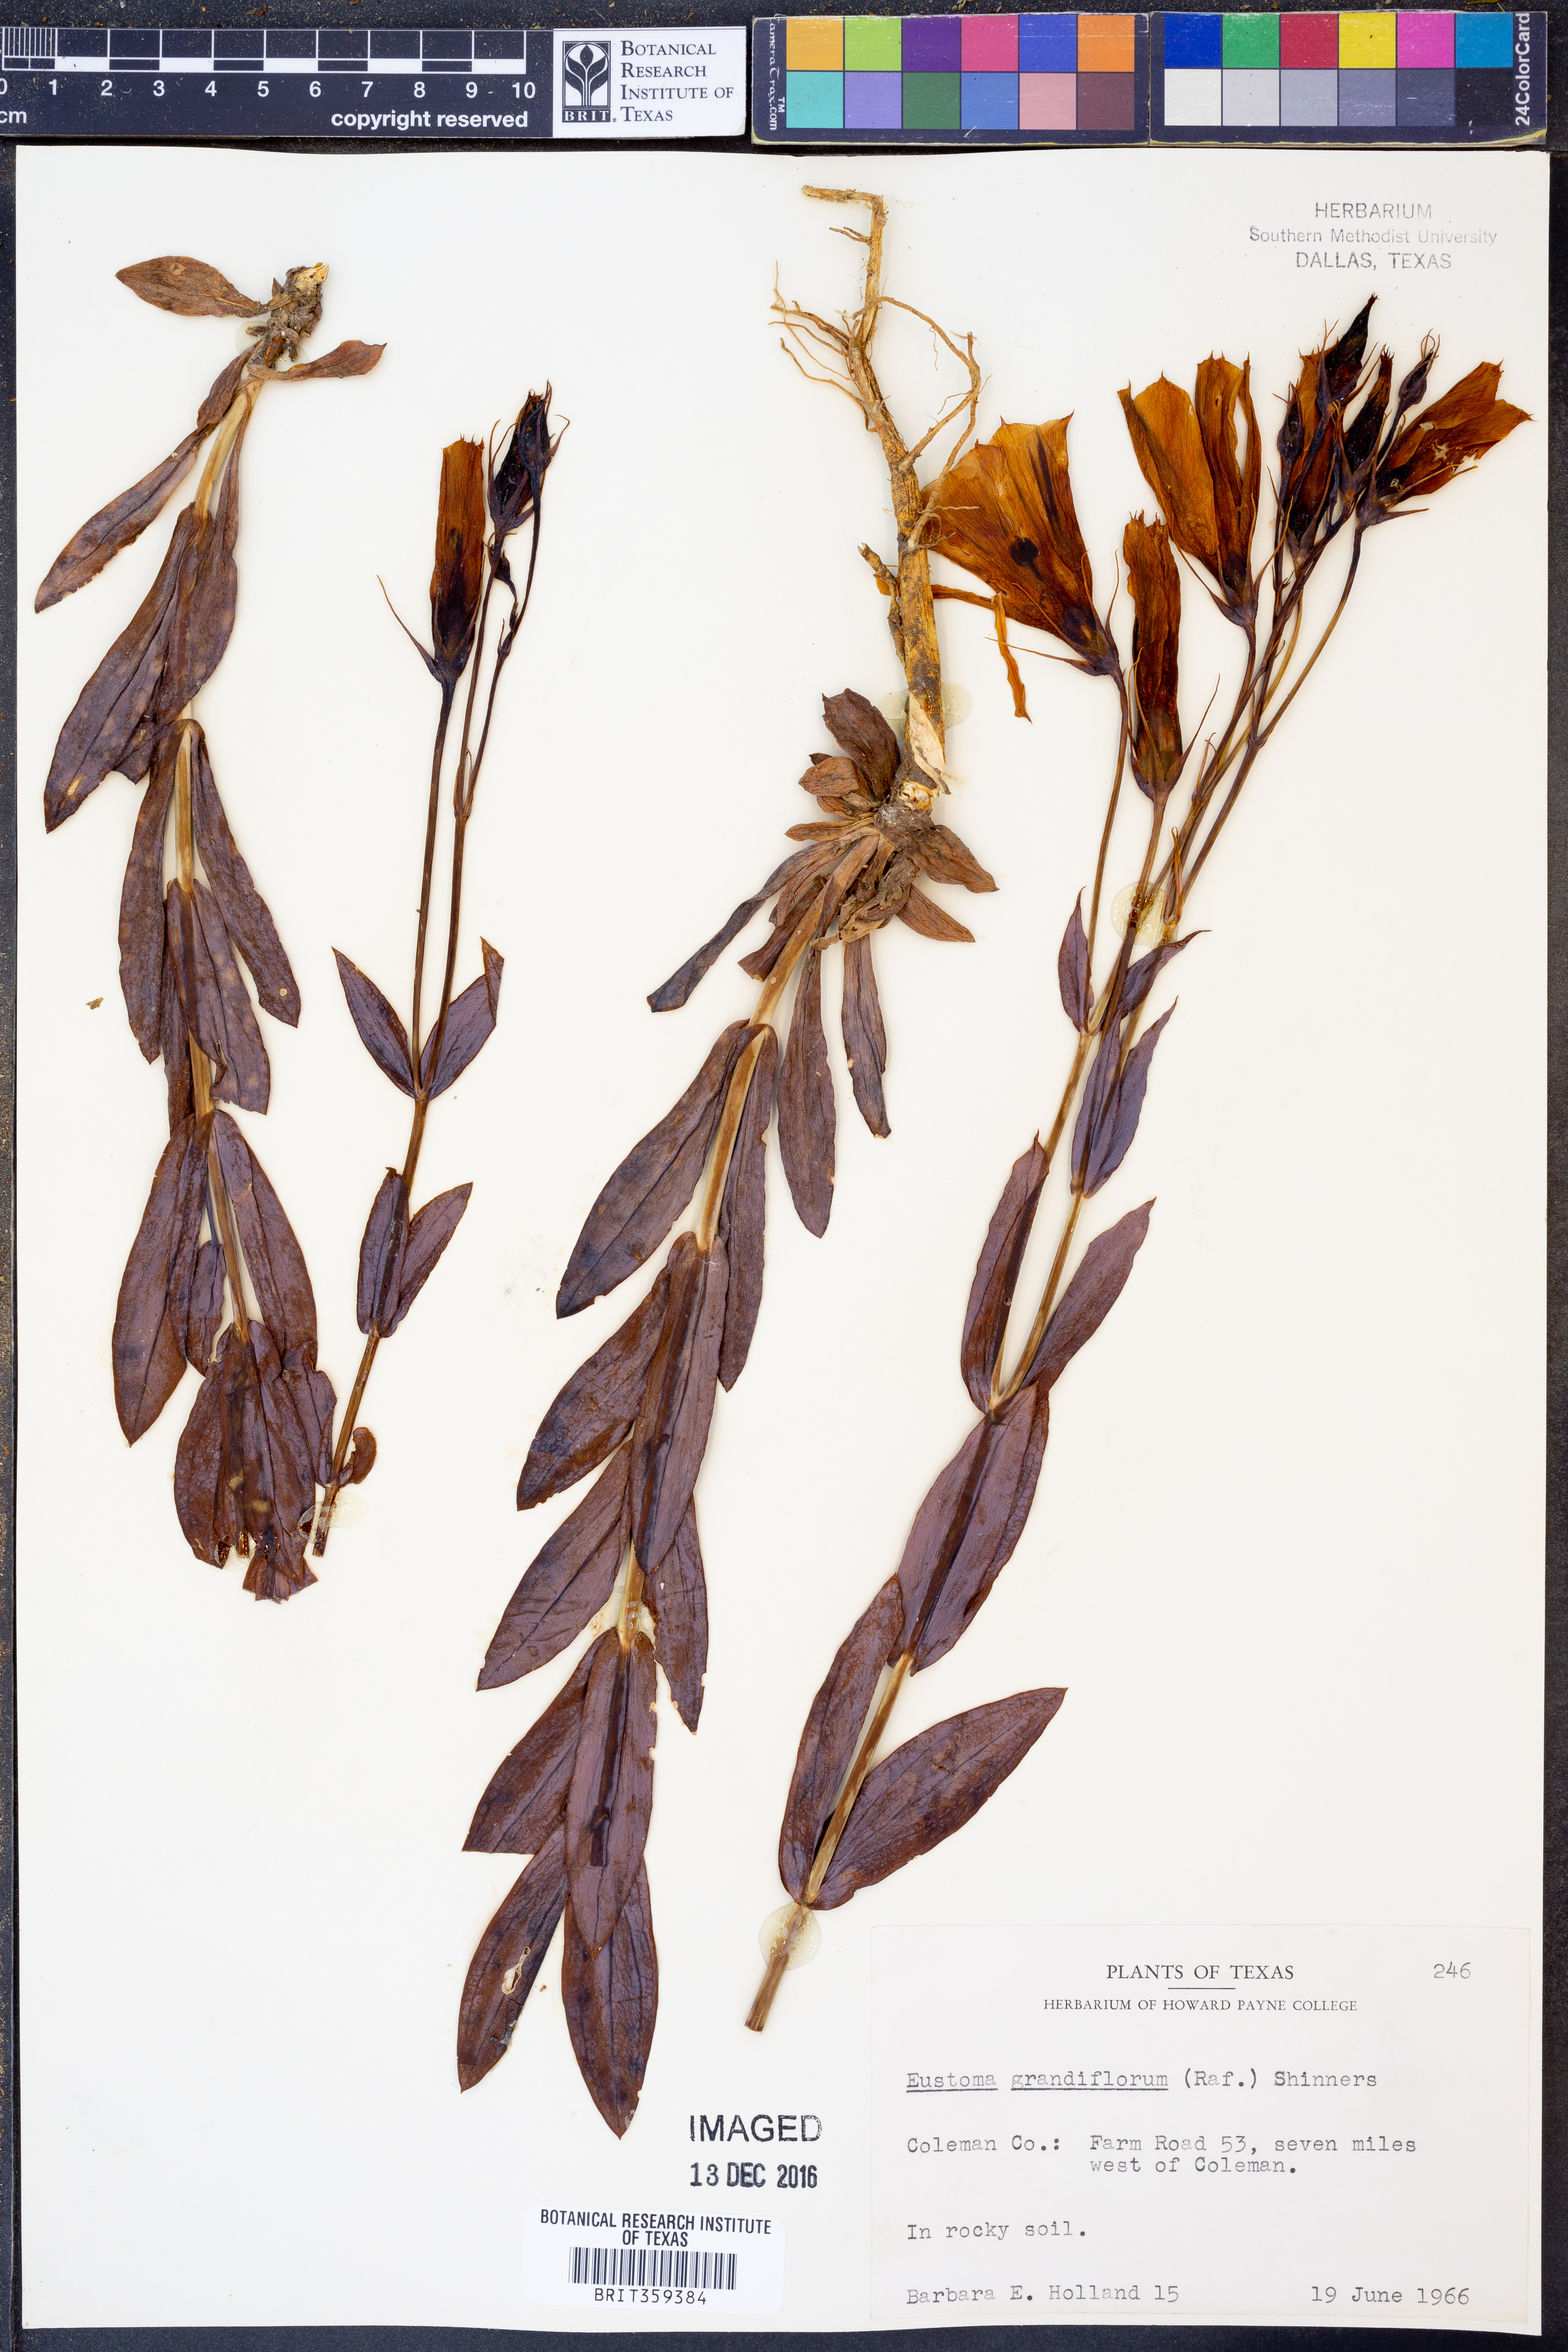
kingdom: Plantae
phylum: Tracheophyta
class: Magnoliopsida
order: Gentianales
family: Gentianaceae
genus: Eustoma
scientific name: Eustoma russellianum
